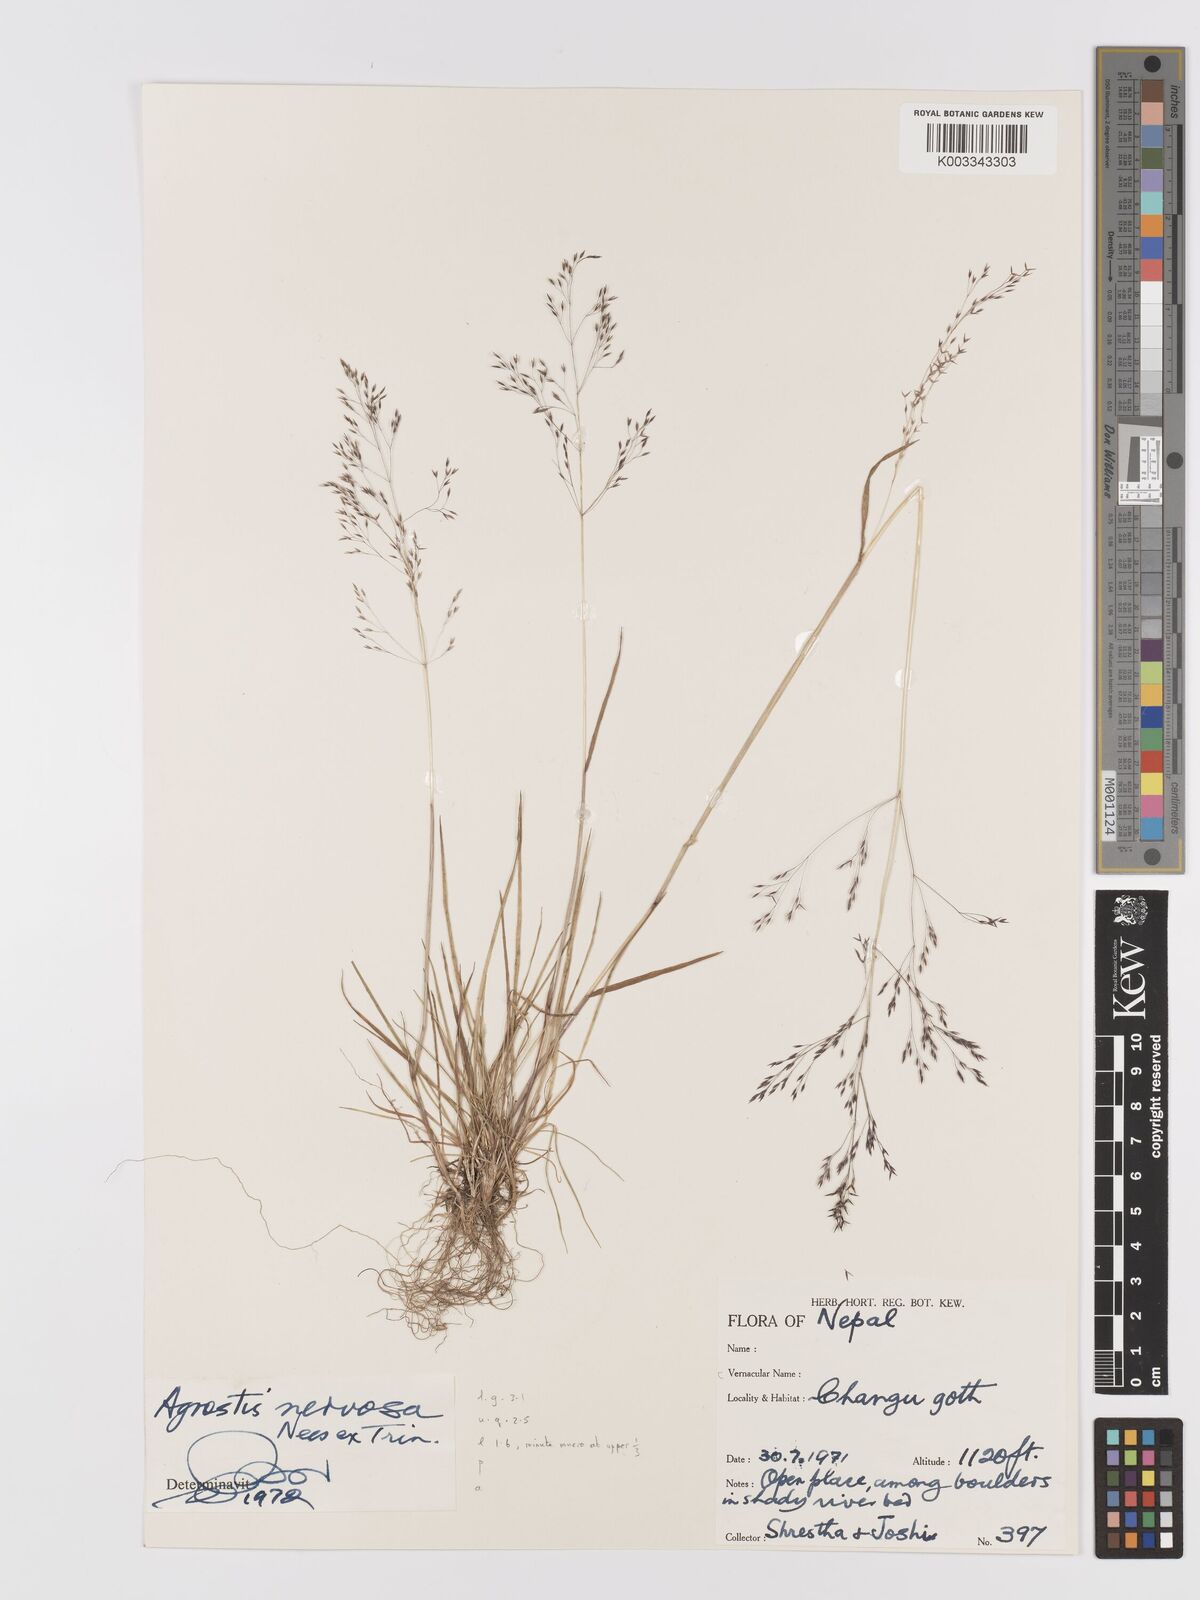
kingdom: Plantae
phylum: Tracheophyta
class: Liliopsida
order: Poales
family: Poaceae
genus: Agrostis
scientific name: Agrostis nervosa
